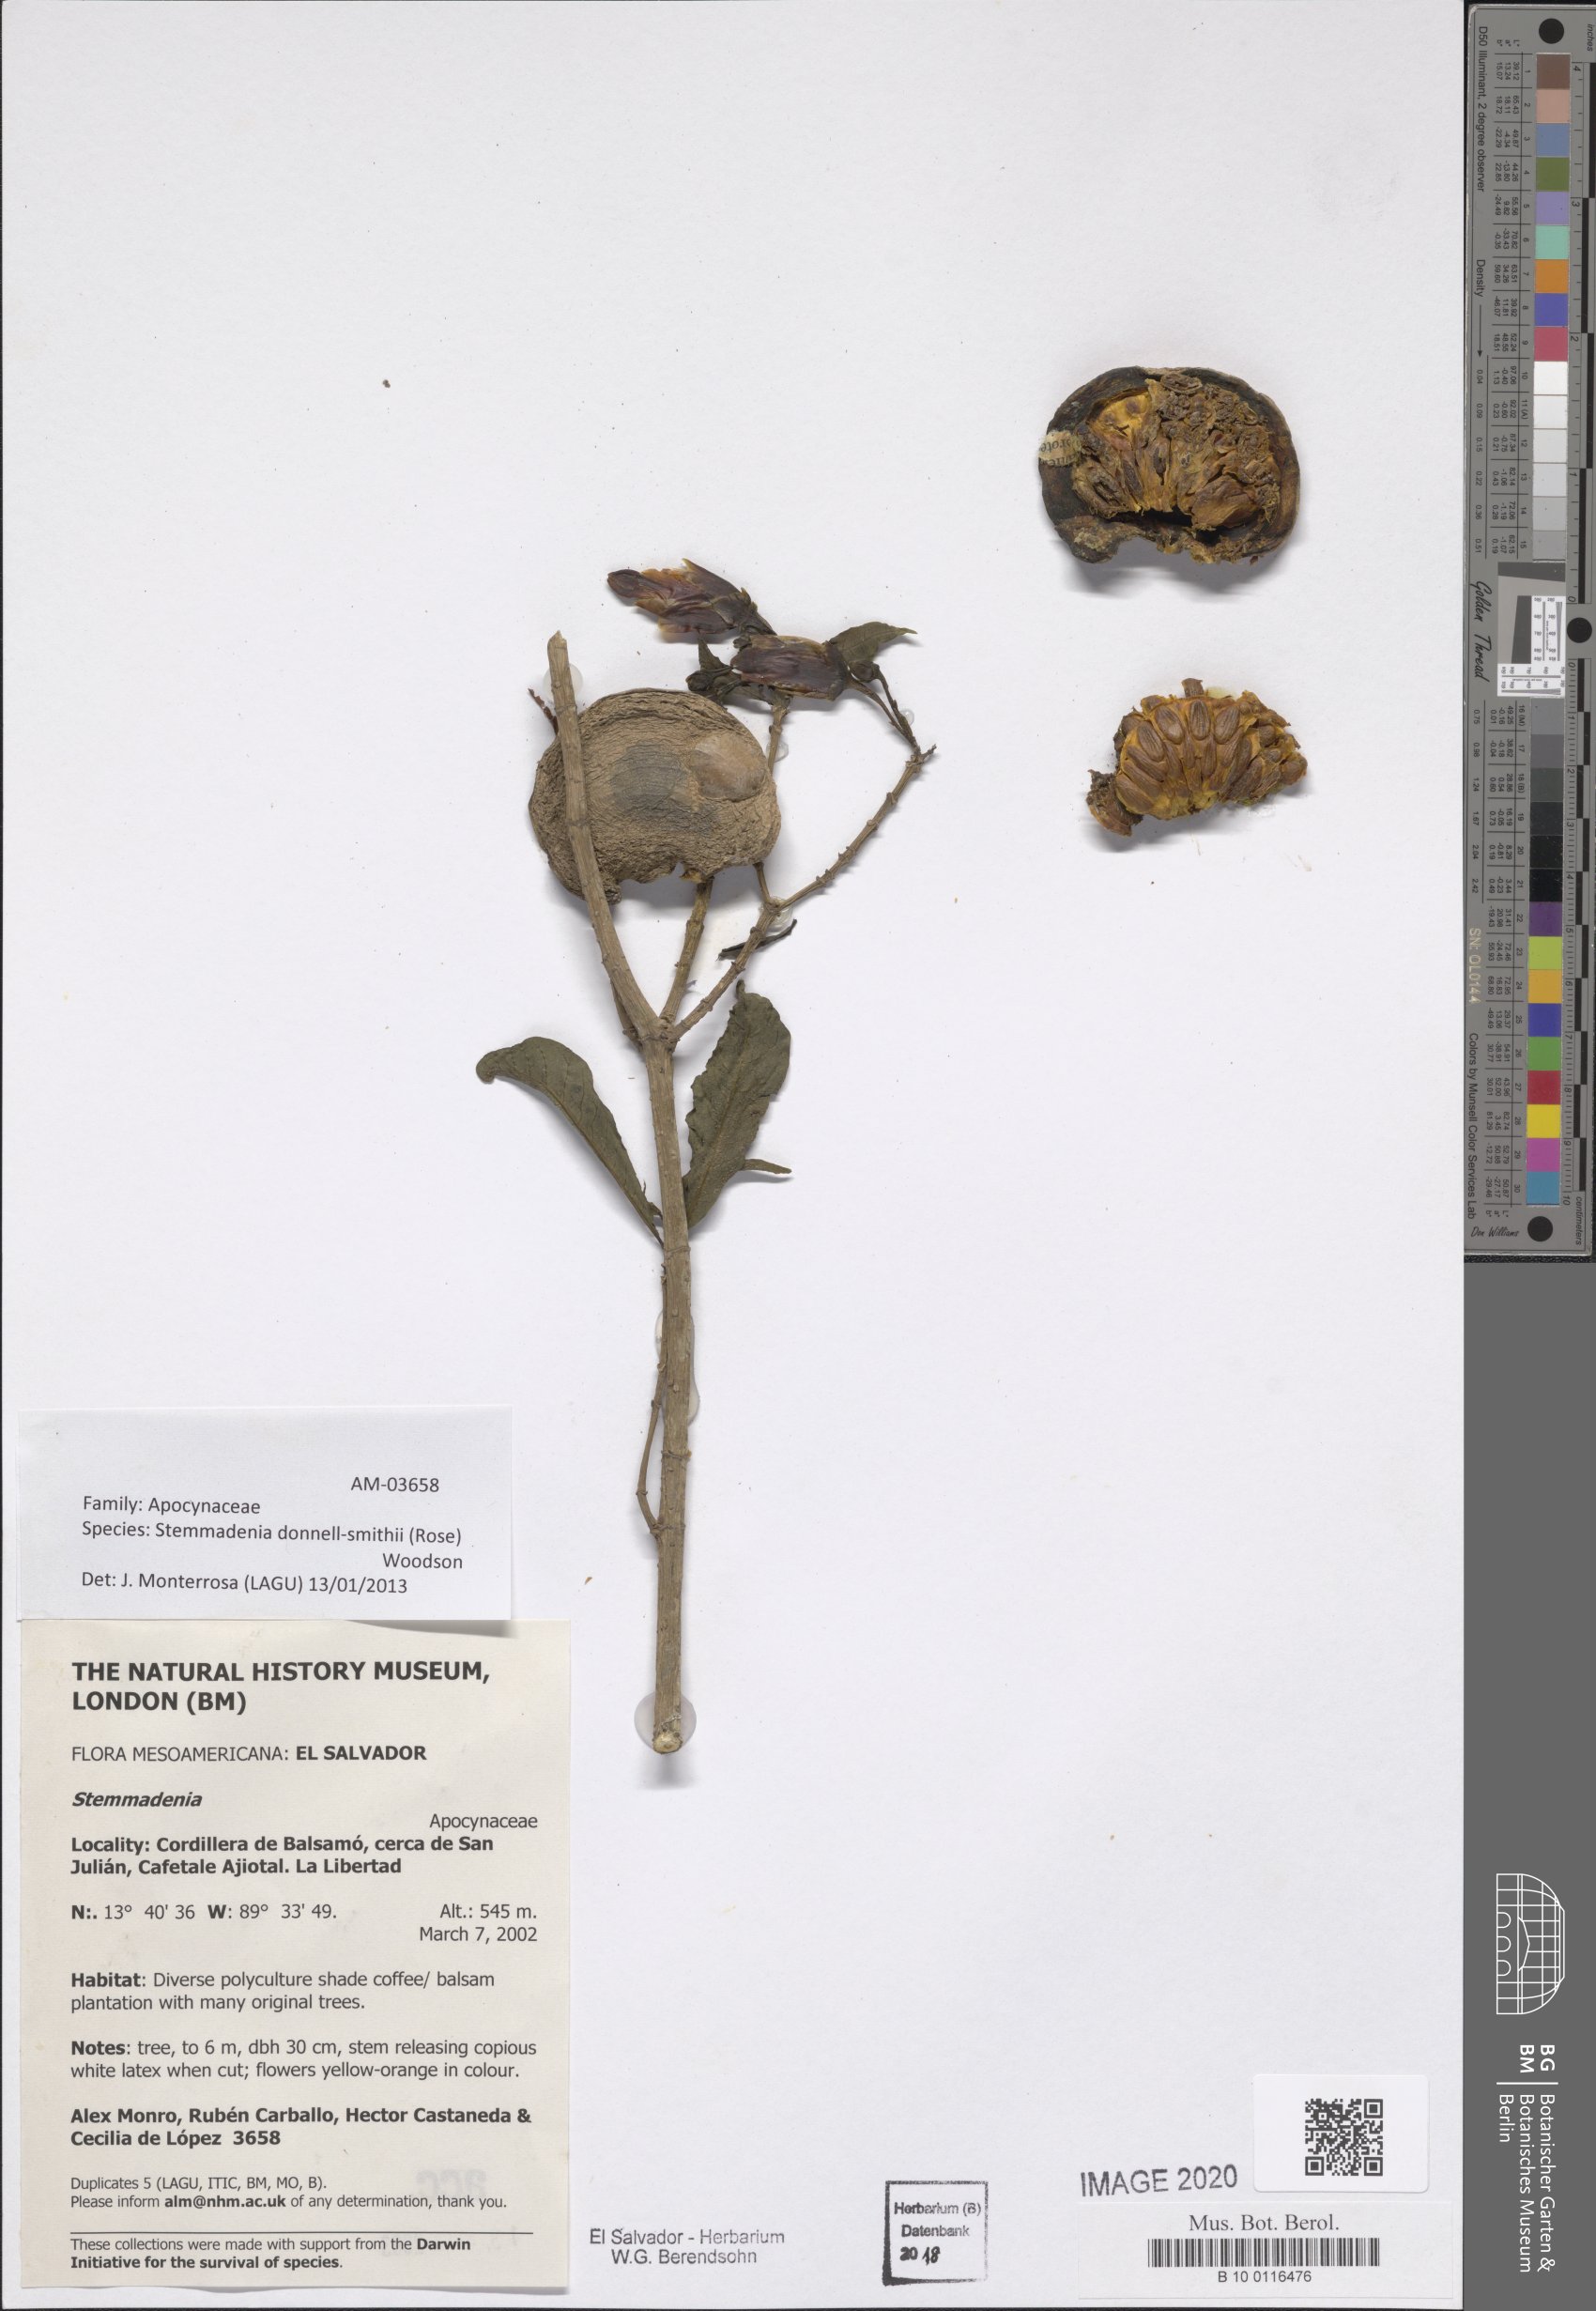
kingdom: Plantae
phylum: Tracheophyta
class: Magnoliopsida
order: Gentianales
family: Apocynaceae
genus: Tabernaemontana
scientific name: Tabernaemontana donnell-smithii
